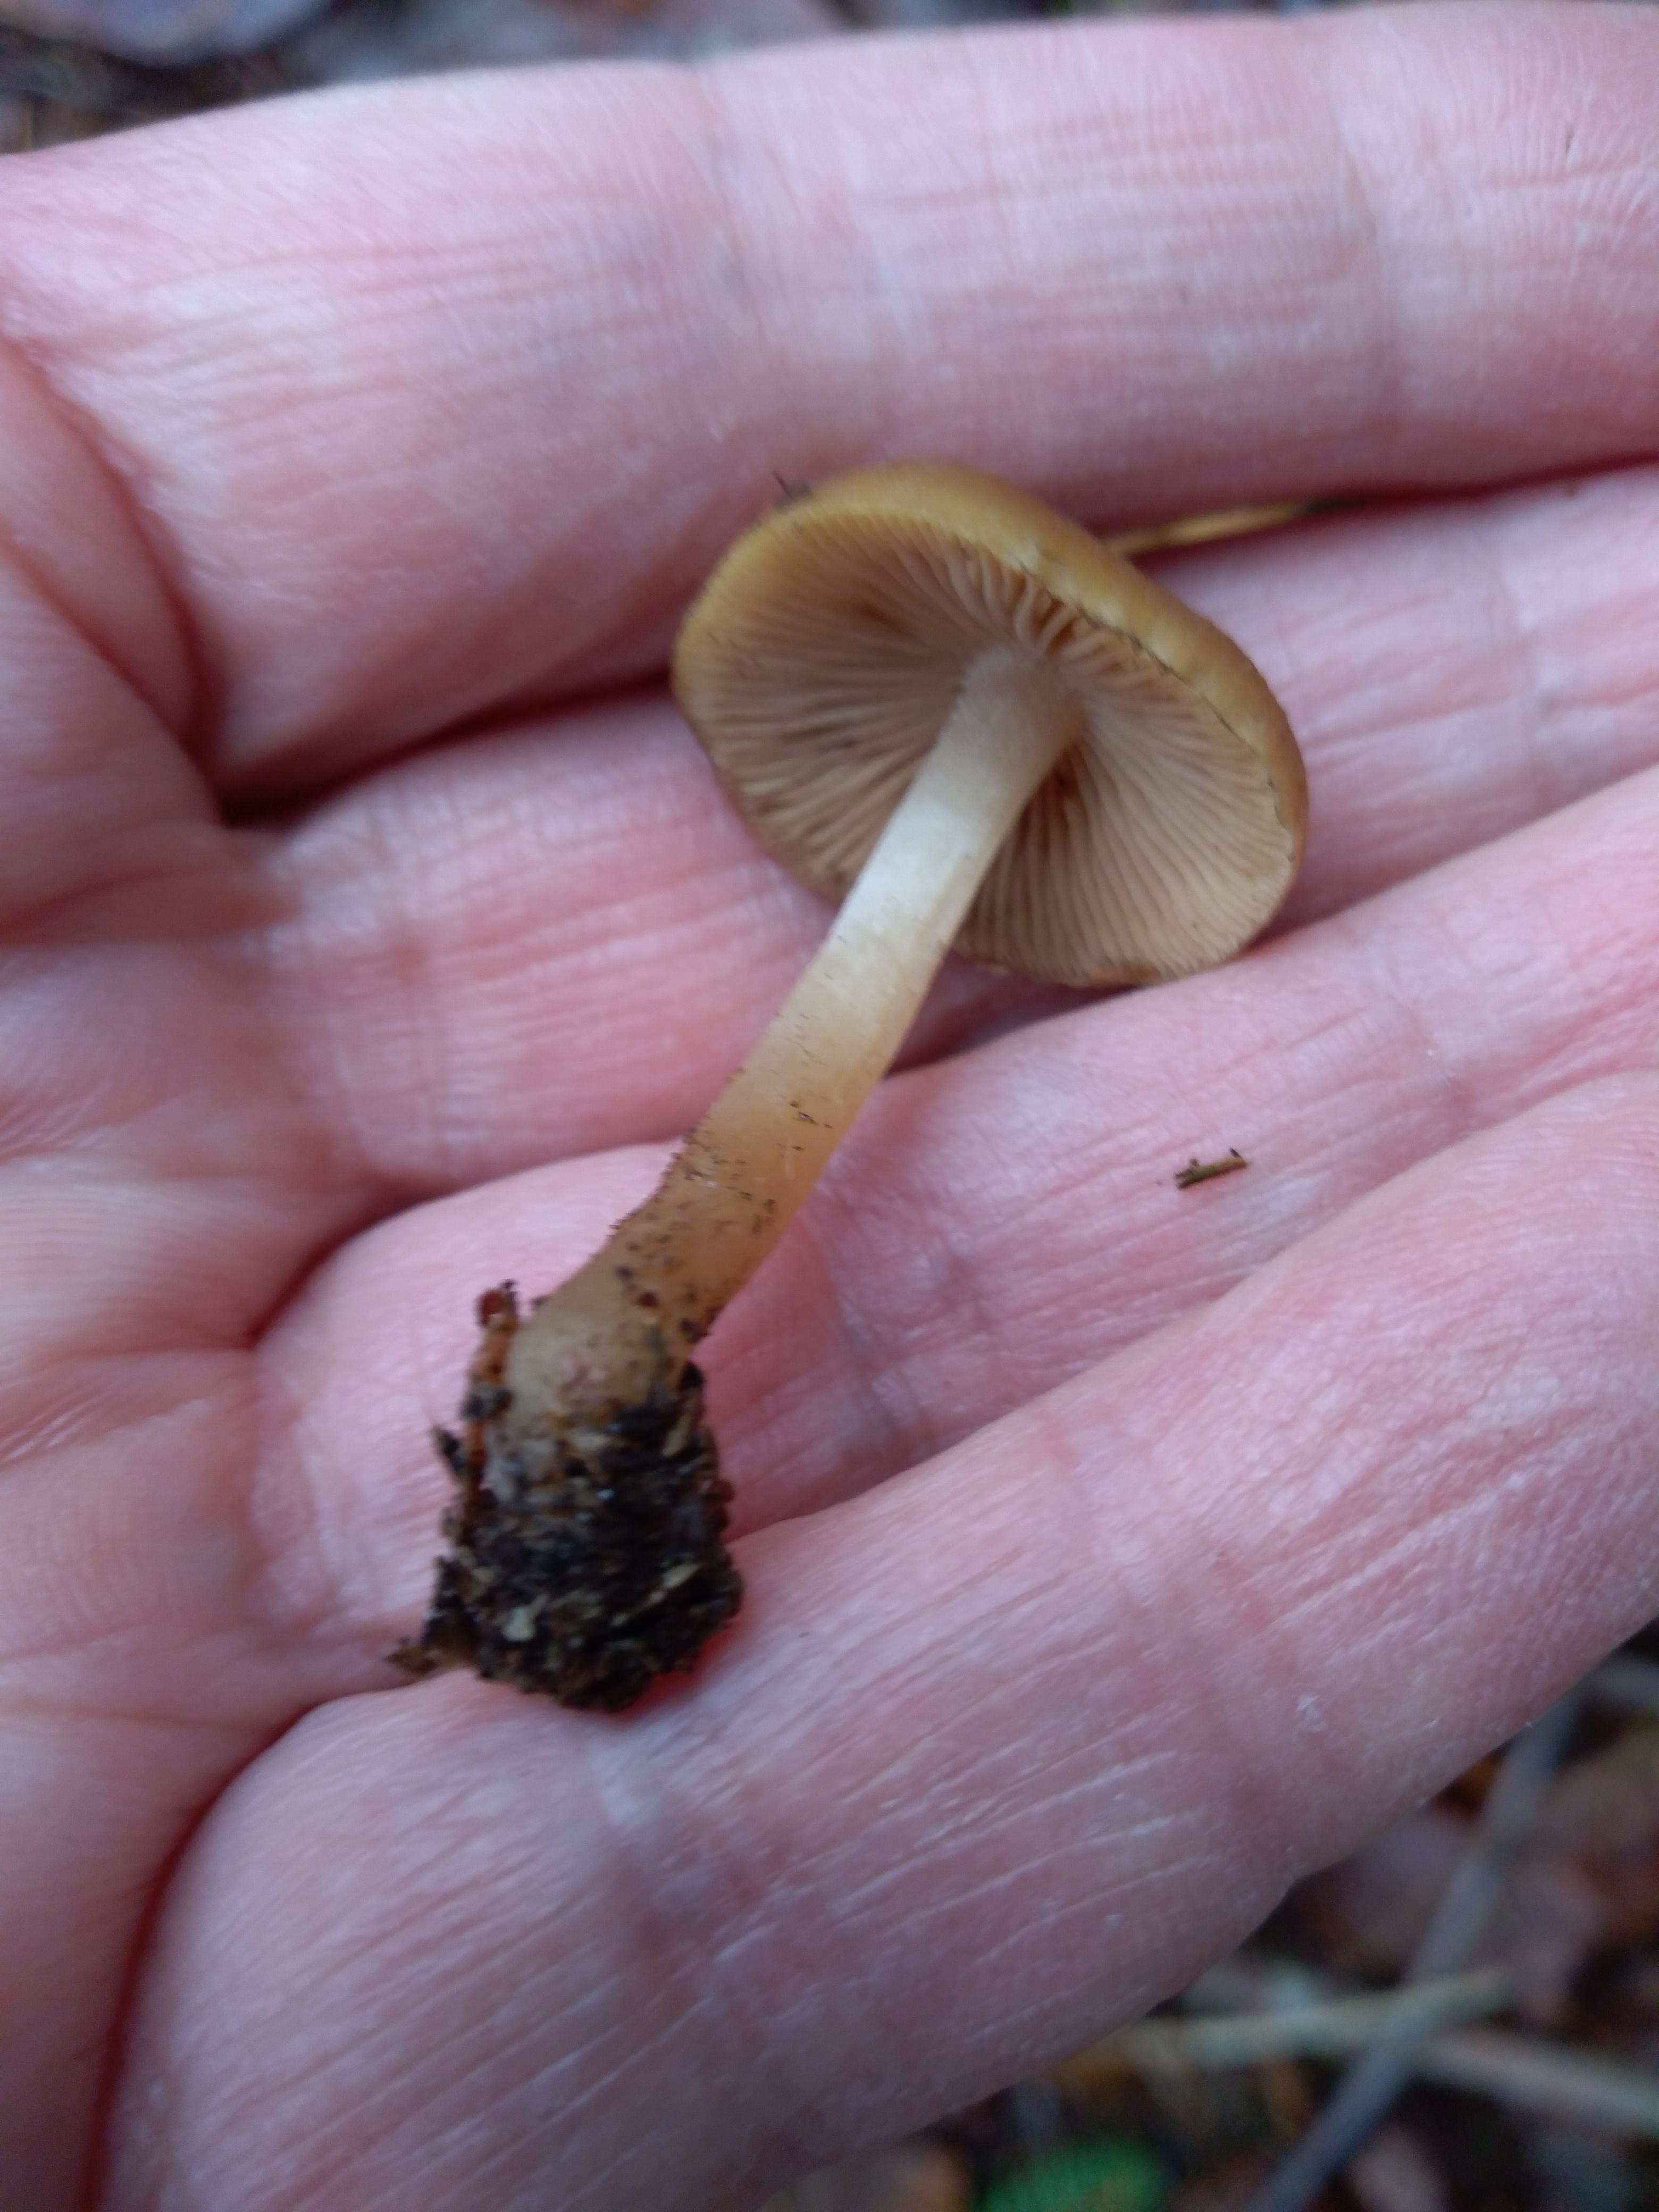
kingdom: Fungi
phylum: Basidiomycota
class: Agaricomycetes
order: Agaricales
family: Strophariaceae
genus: Hypholoma
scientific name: Hypholoma capnoides
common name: gran-svovlhat
